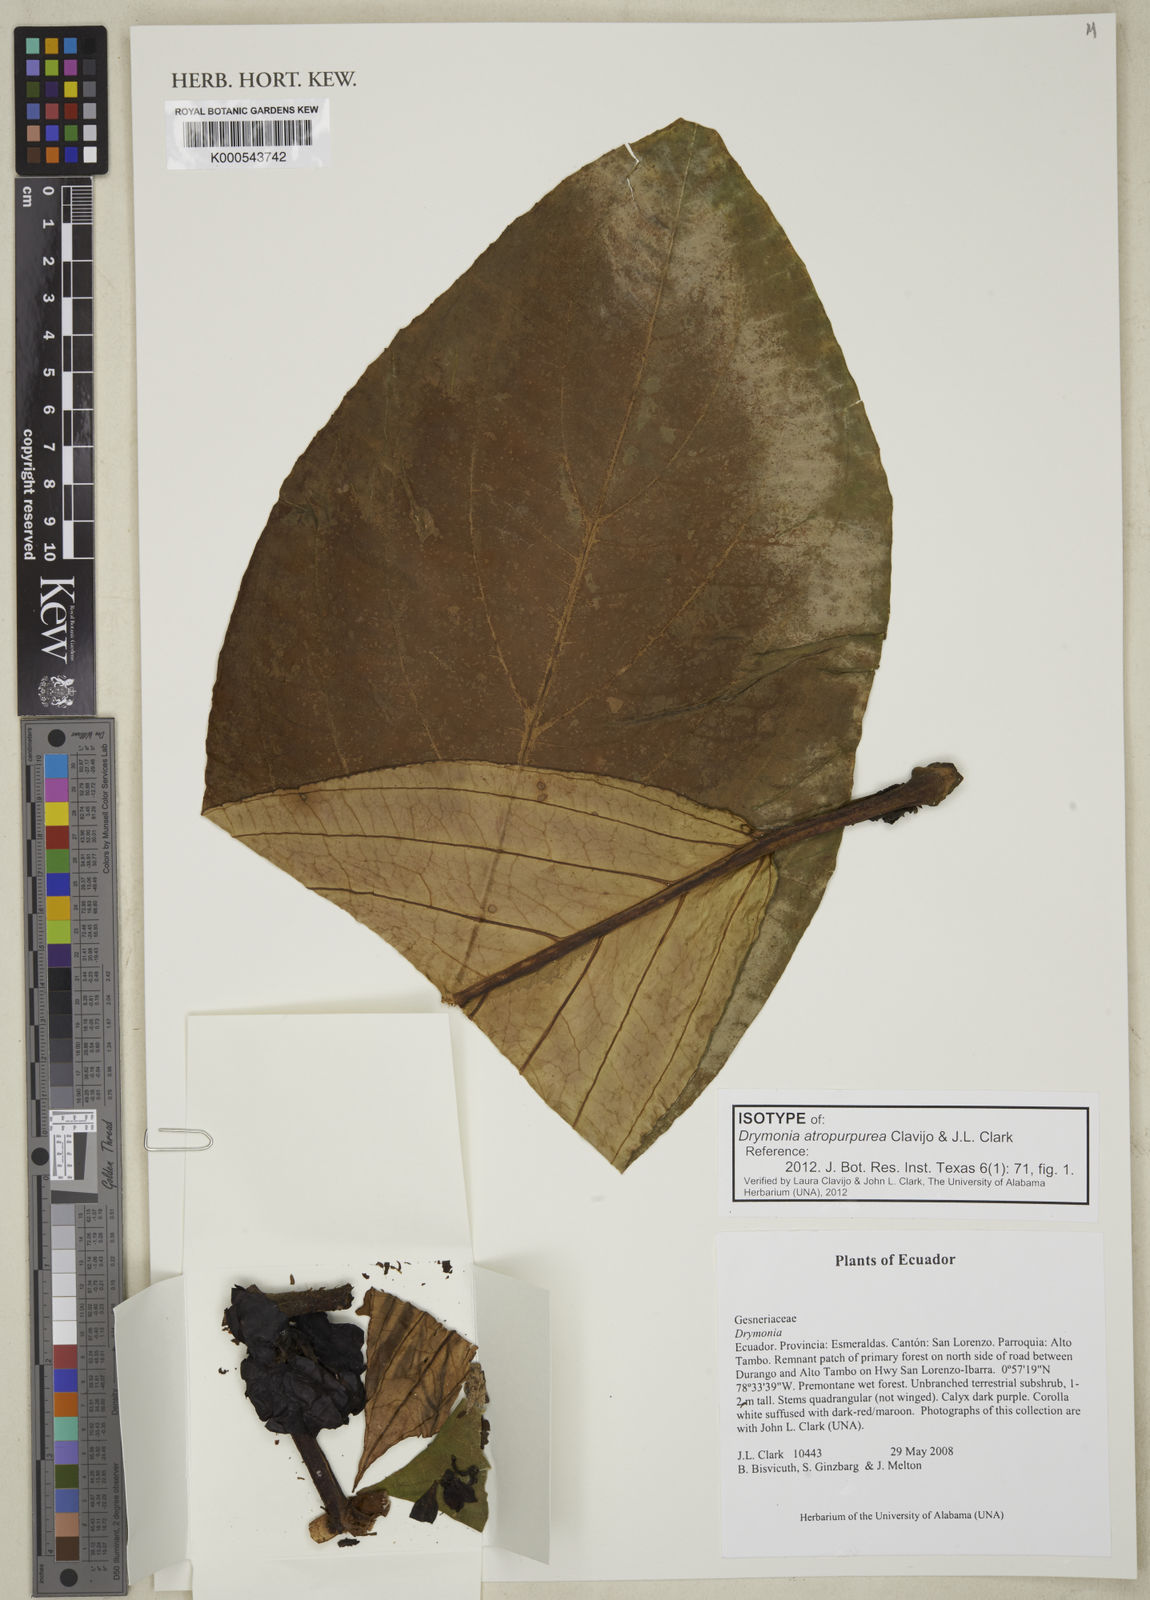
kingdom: Plantae
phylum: Tracheophyta
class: Magnoliopsida
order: Lamiales
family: Gesneriaceae
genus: Drymonia
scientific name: Drymonia atropurpurea
